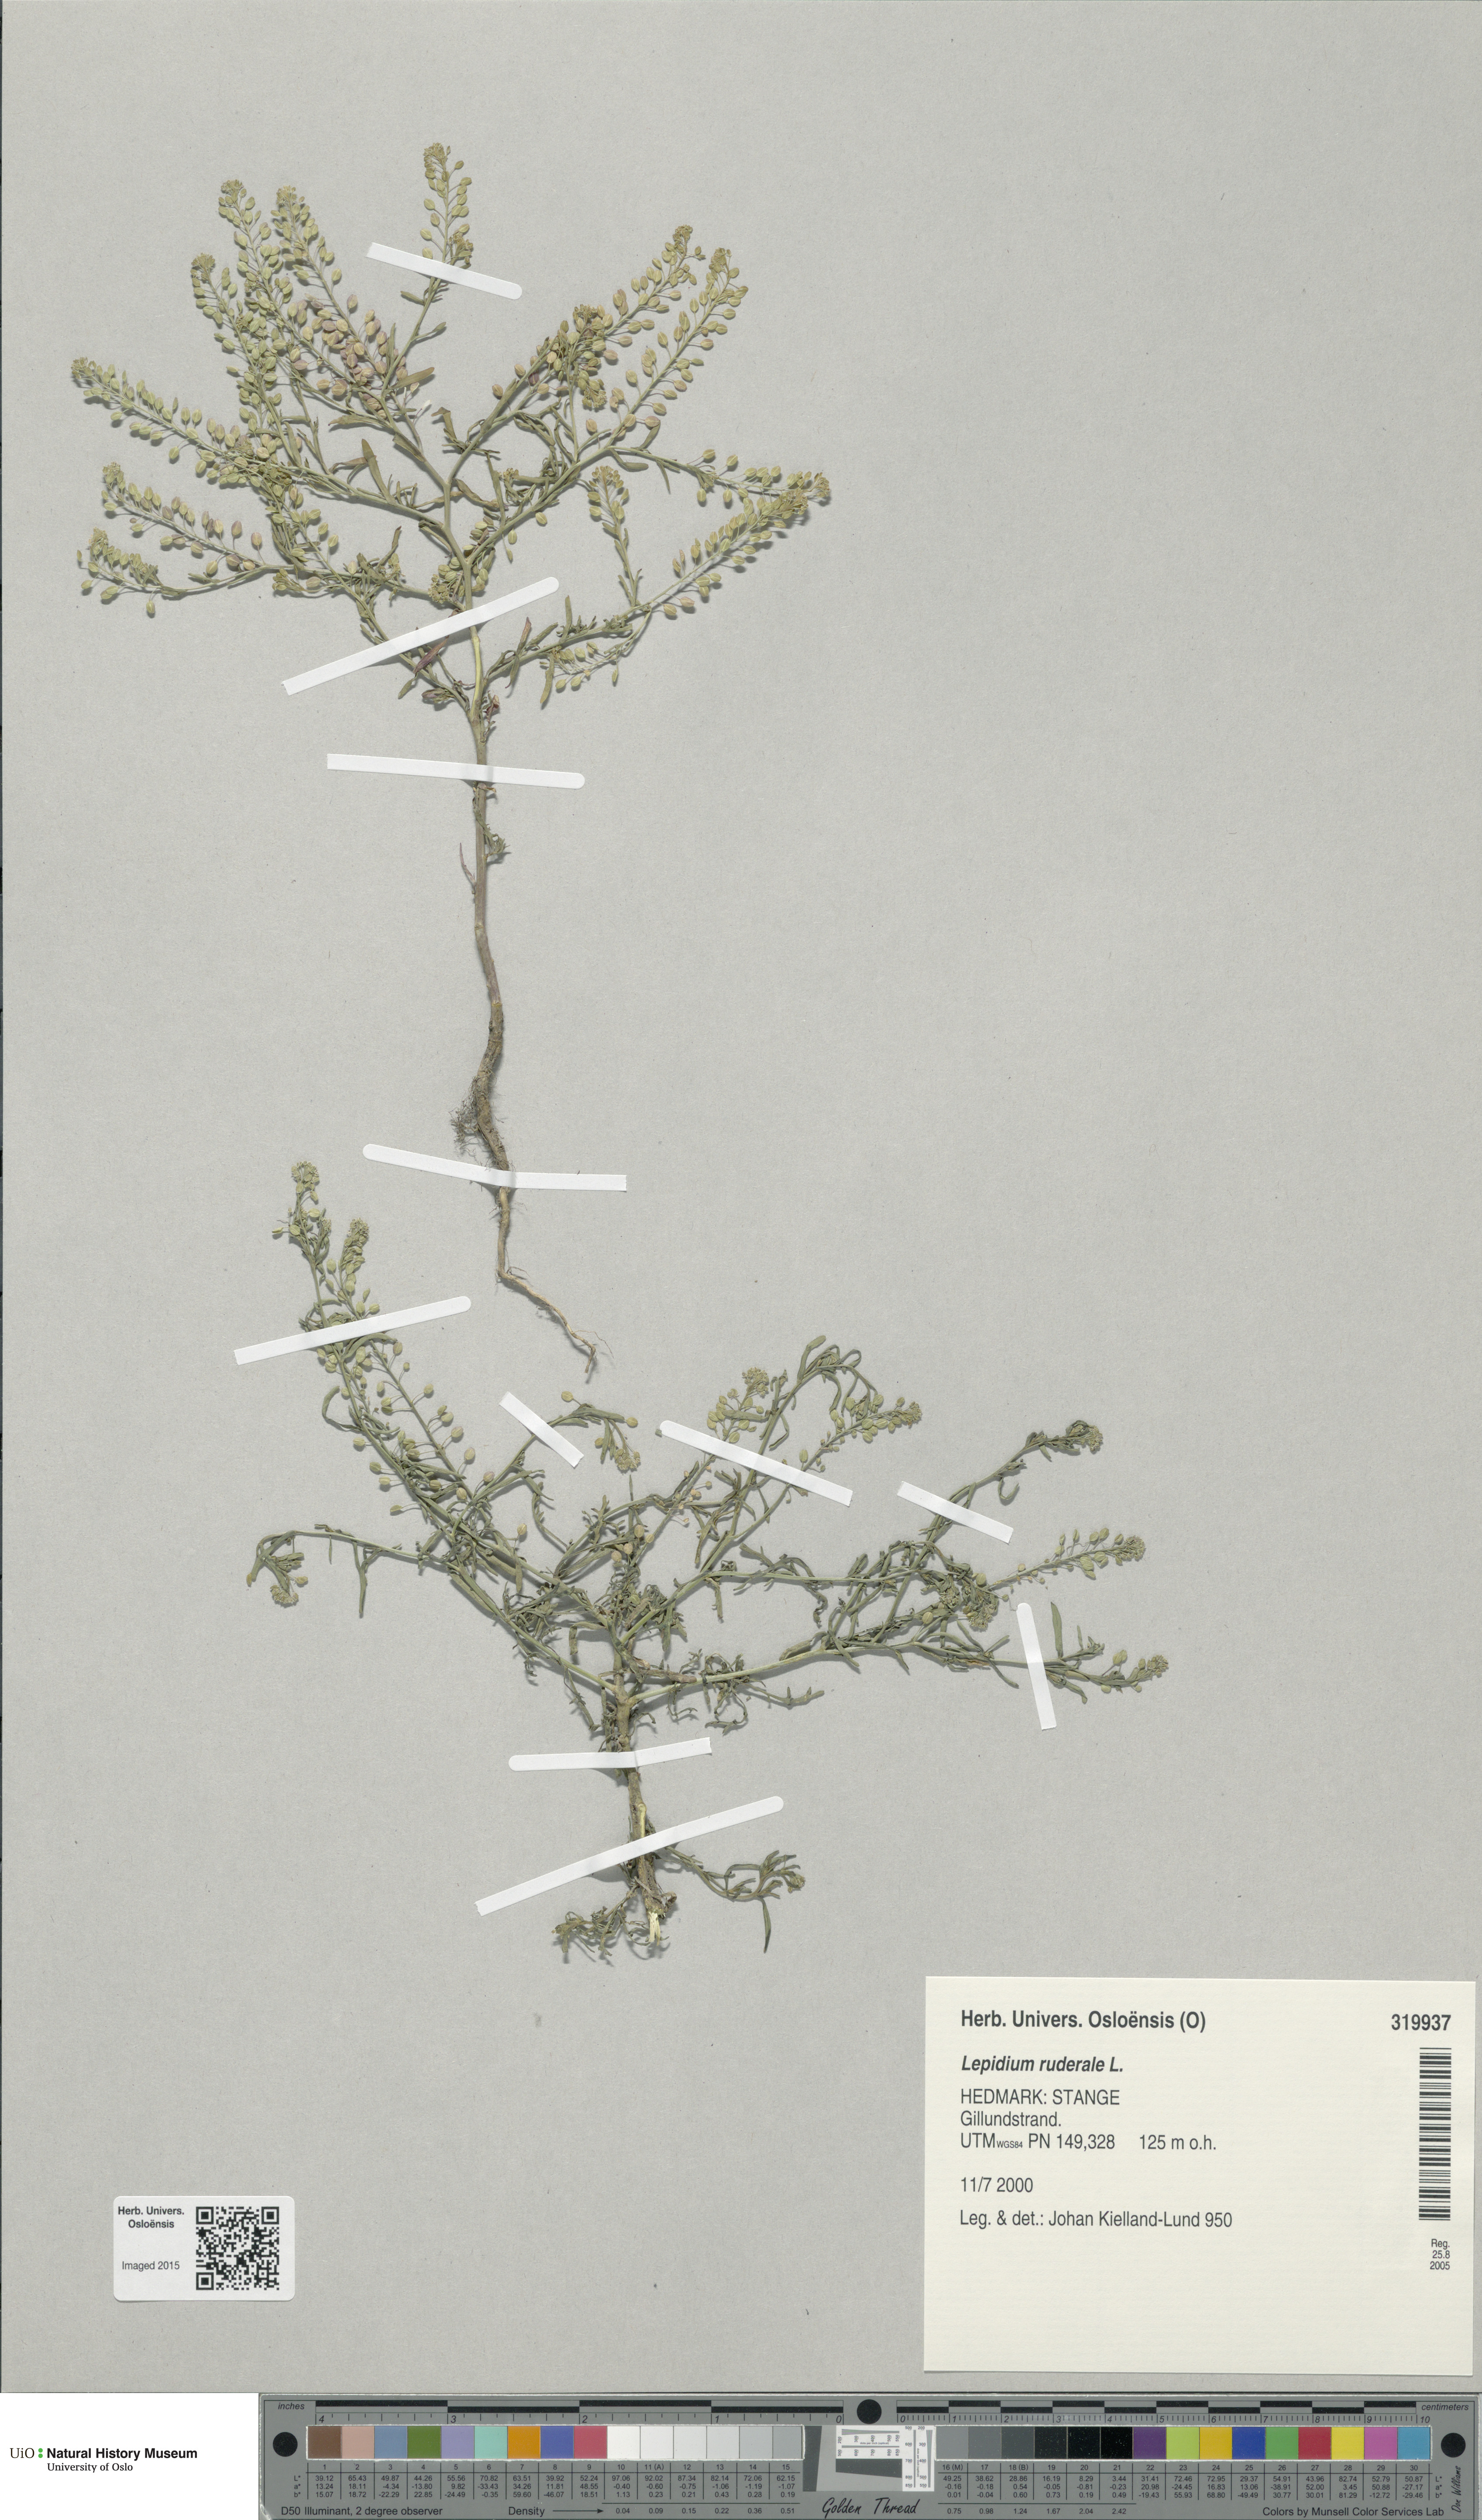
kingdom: Plantae
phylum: Tracheophyta
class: Magnoliopsida
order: Brassicales
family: Brassicaceae
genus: Lepidium
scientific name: Lepidium ruderale
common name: Narrow-leaved pepperwort
